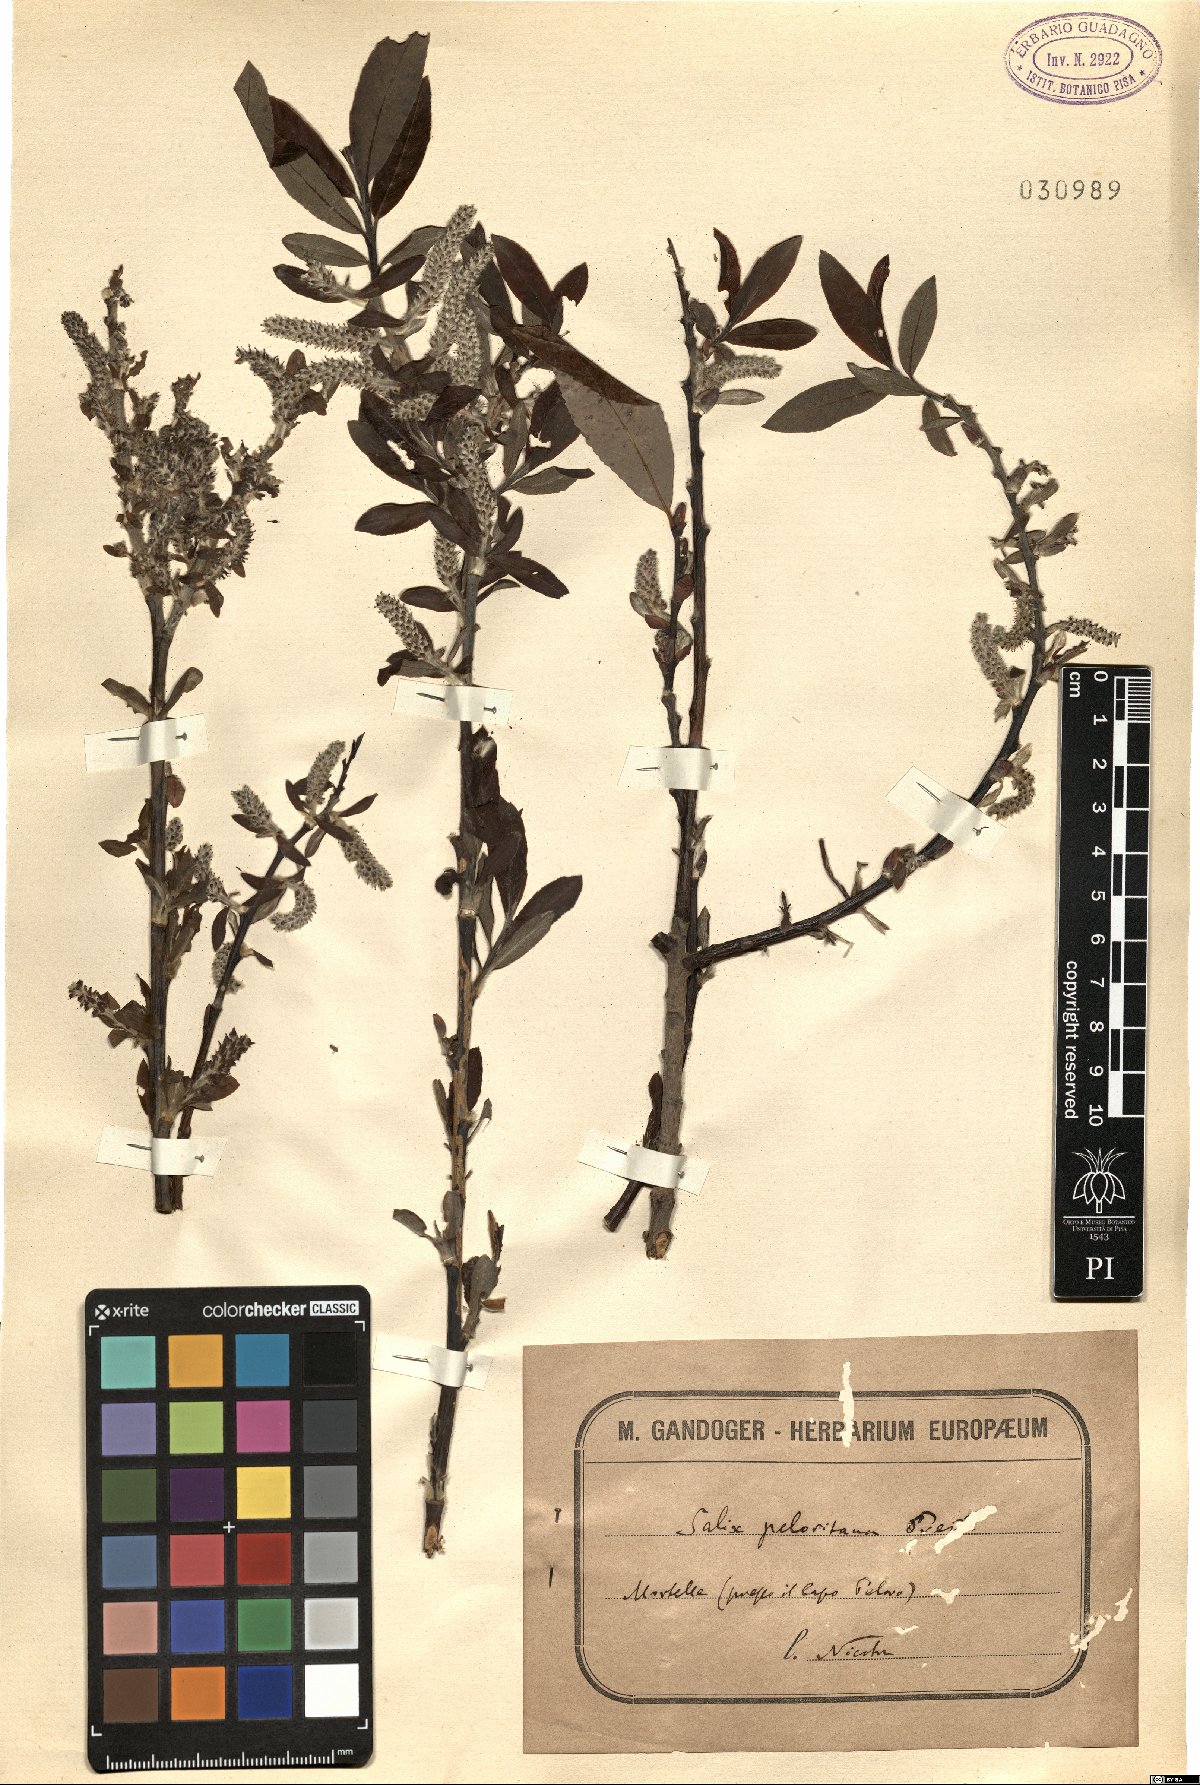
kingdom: Plantae
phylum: Tracheophyta
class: Magnoliopsida
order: Malpighiales
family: Salicaceae
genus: Salix
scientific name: Salix peloritana
